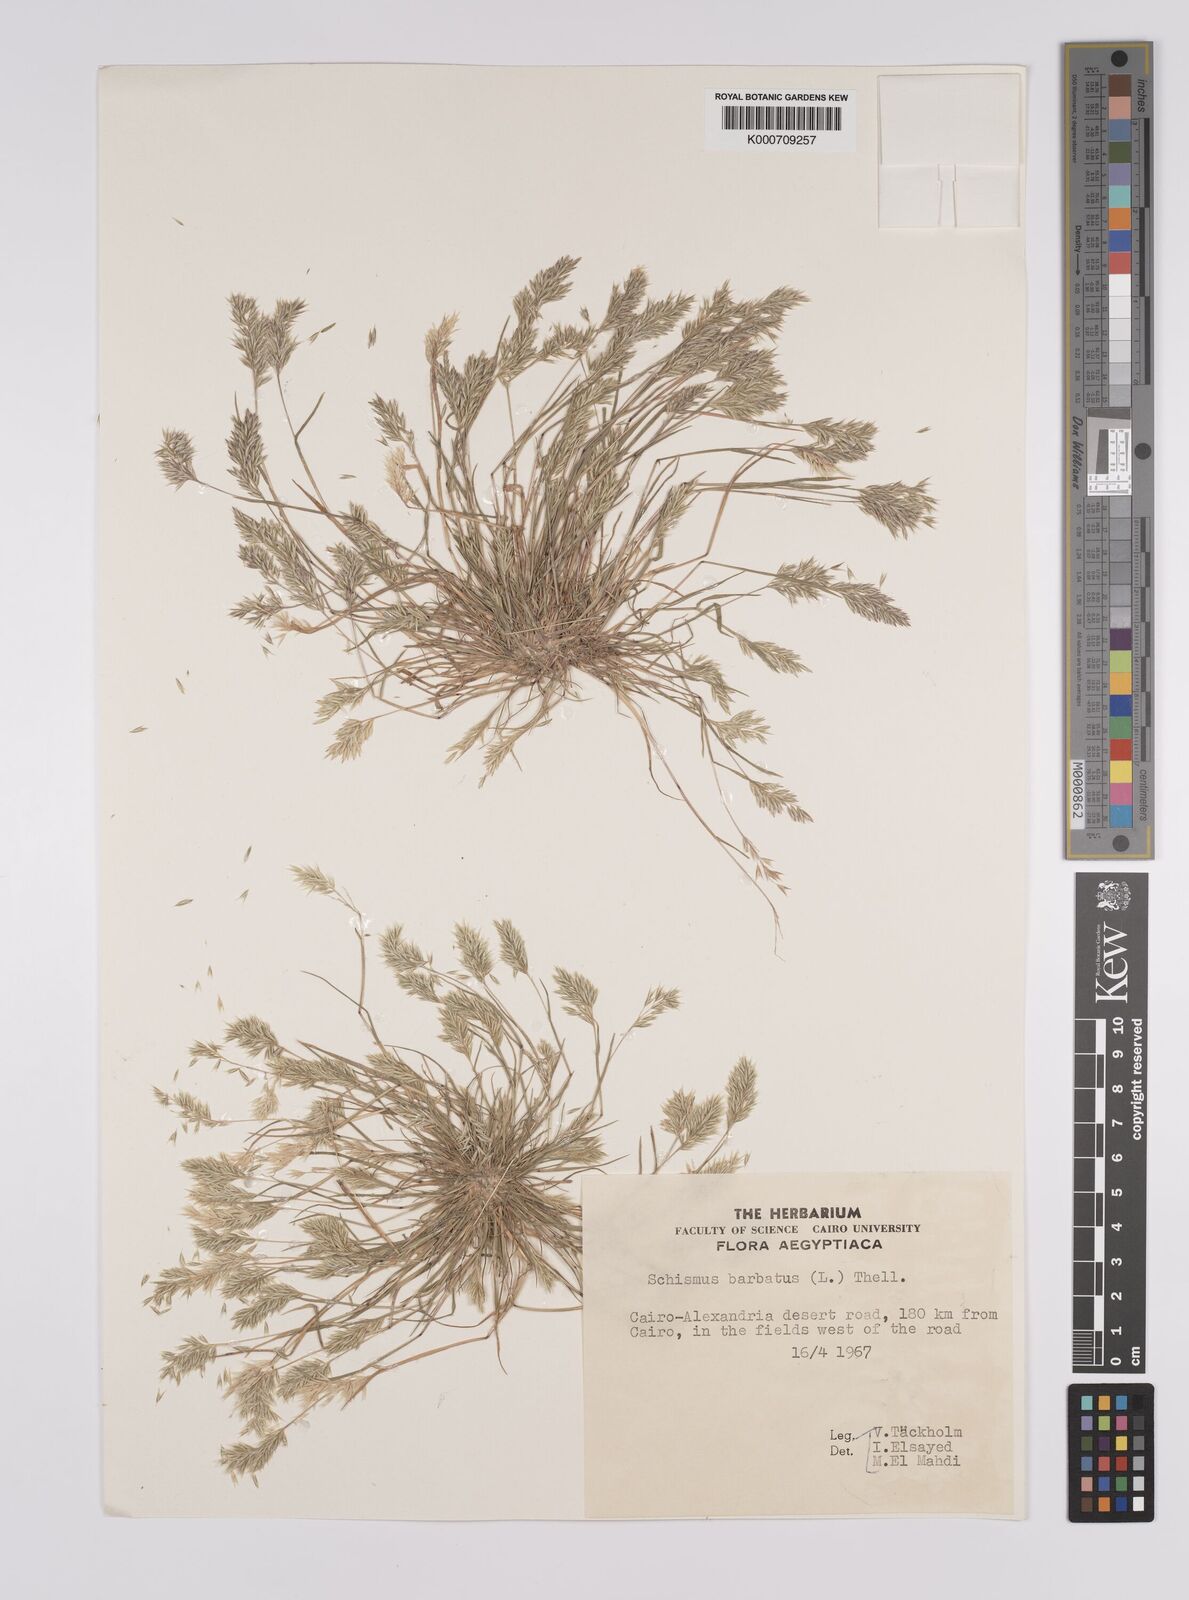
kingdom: Plantae
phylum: Tracheophyta
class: Liliopsida
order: Poales
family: Poaceae
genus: Schismus
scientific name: Schismus barbatus
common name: Kelch-grass
